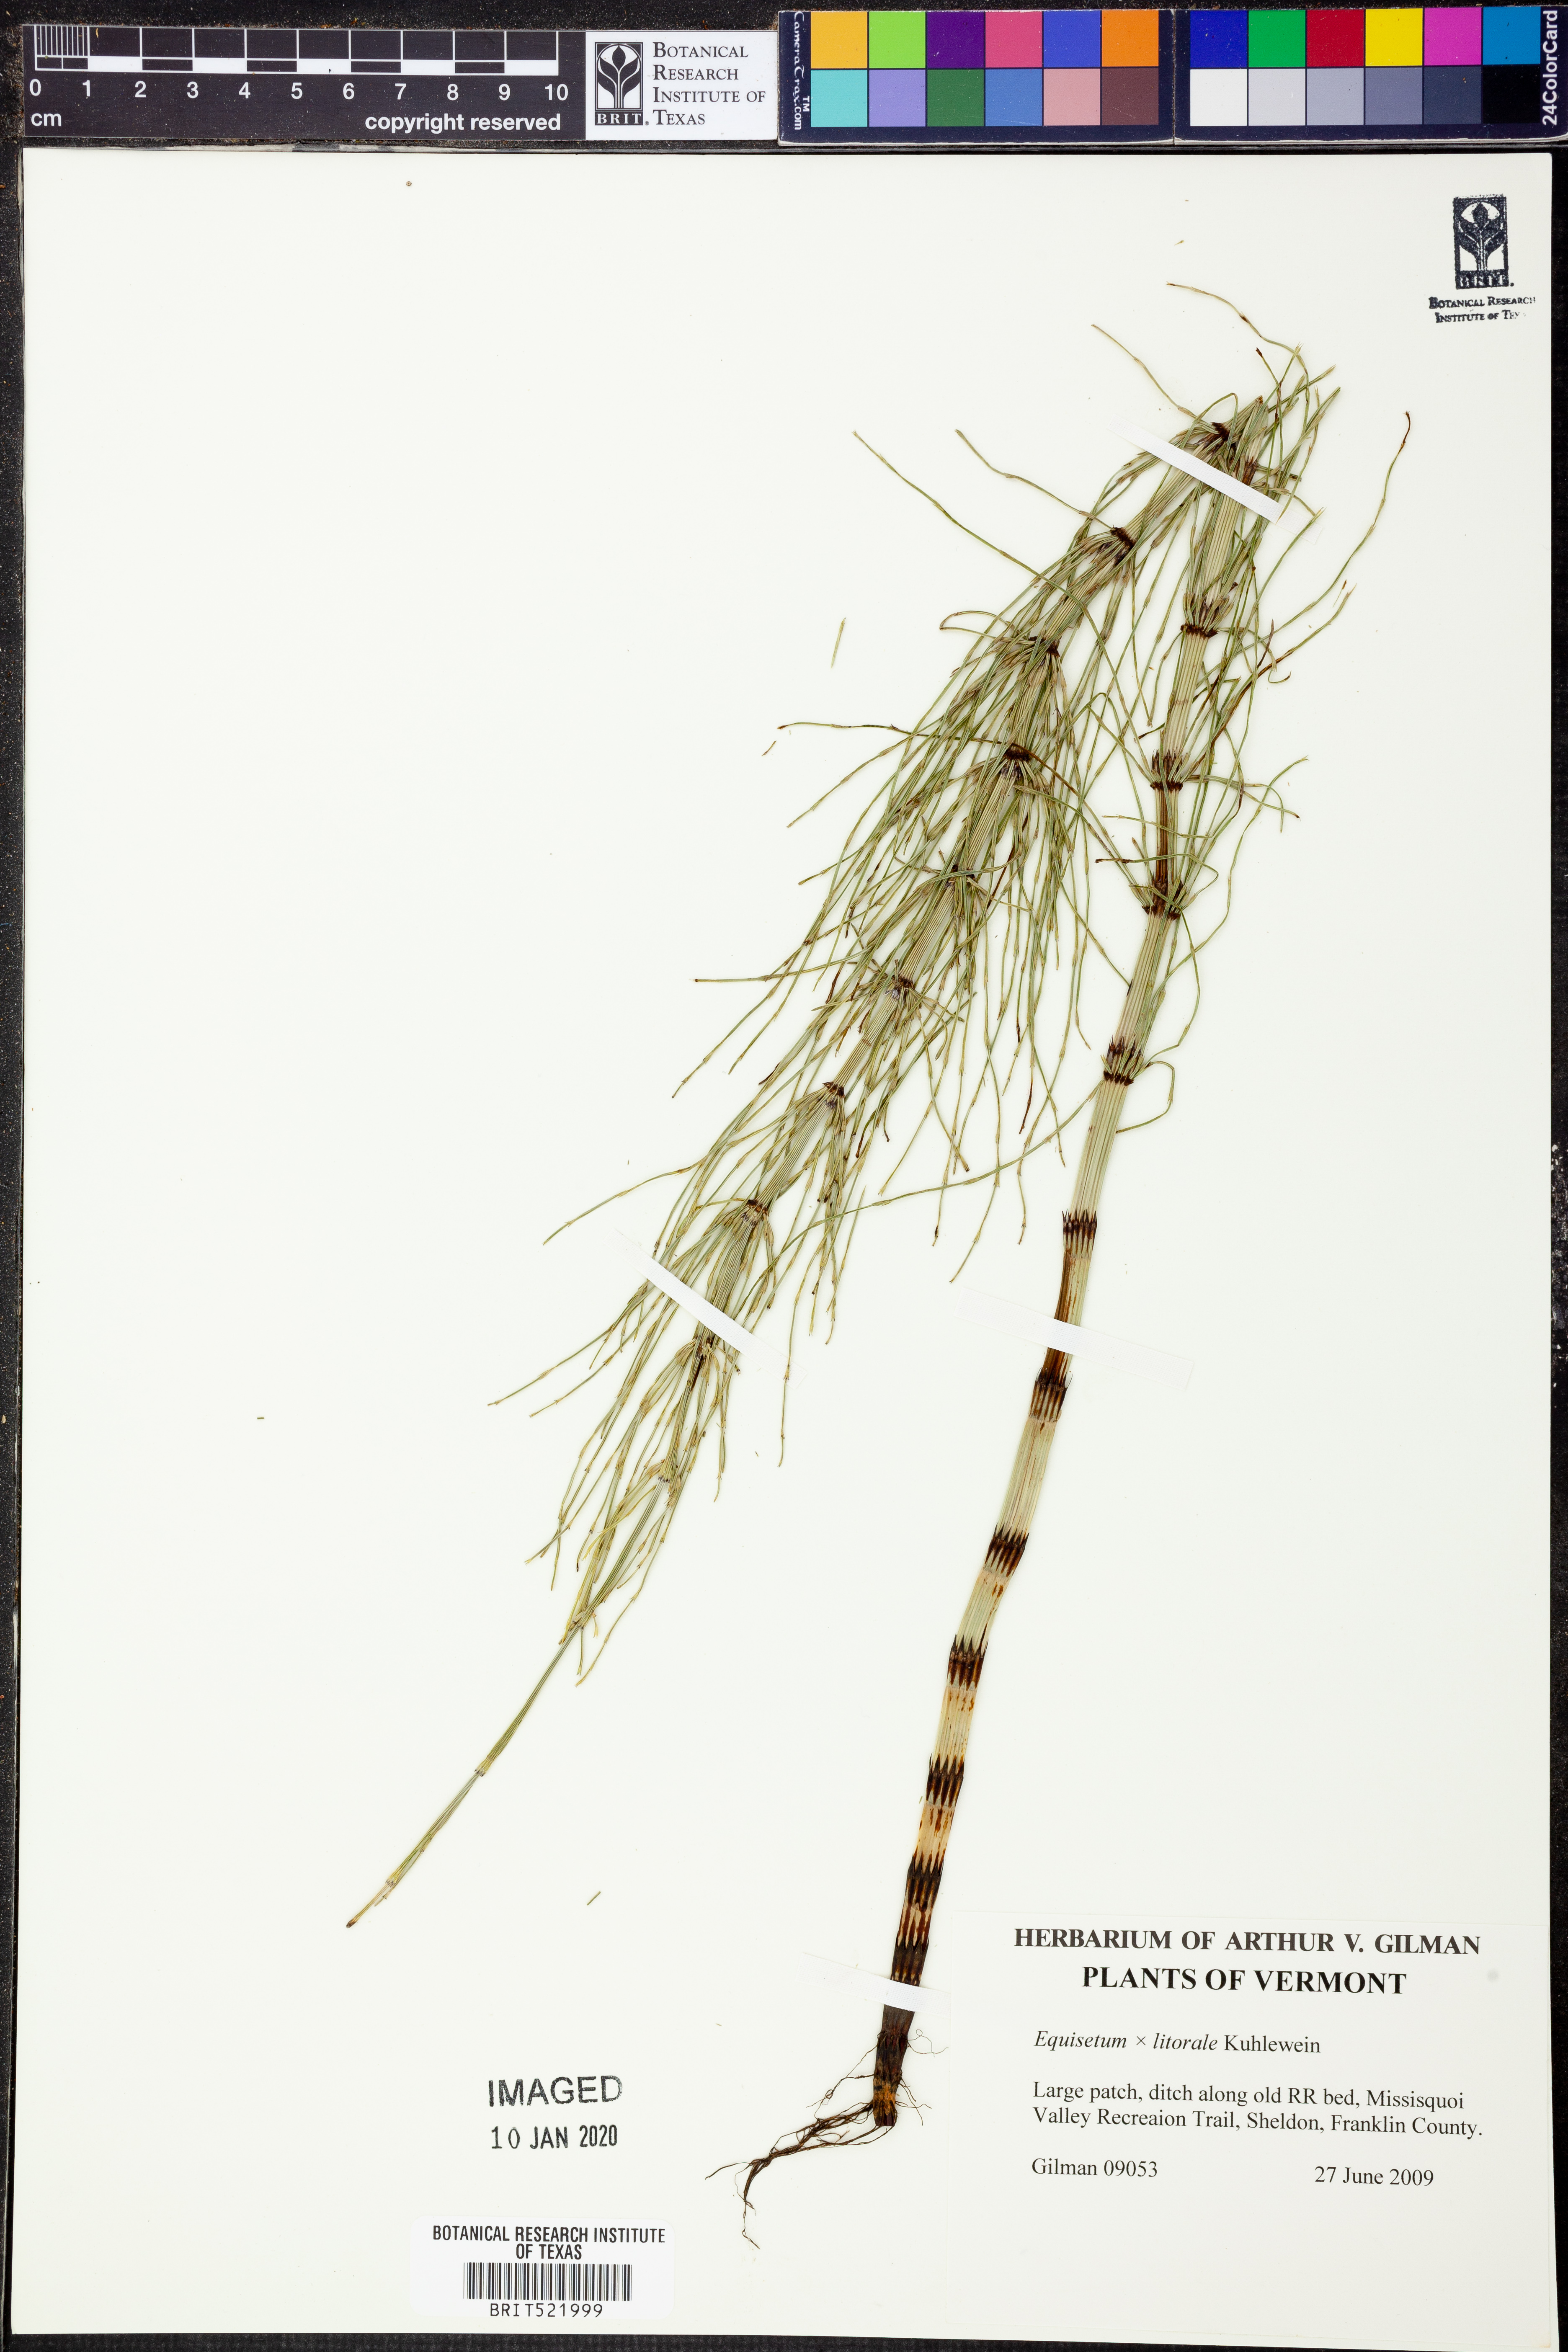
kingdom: Plantae
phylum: Tracheophyta
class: Polypodiopsida
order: Equisetales
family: Equisetaceae
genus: Equisetum
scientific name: Equisetum
